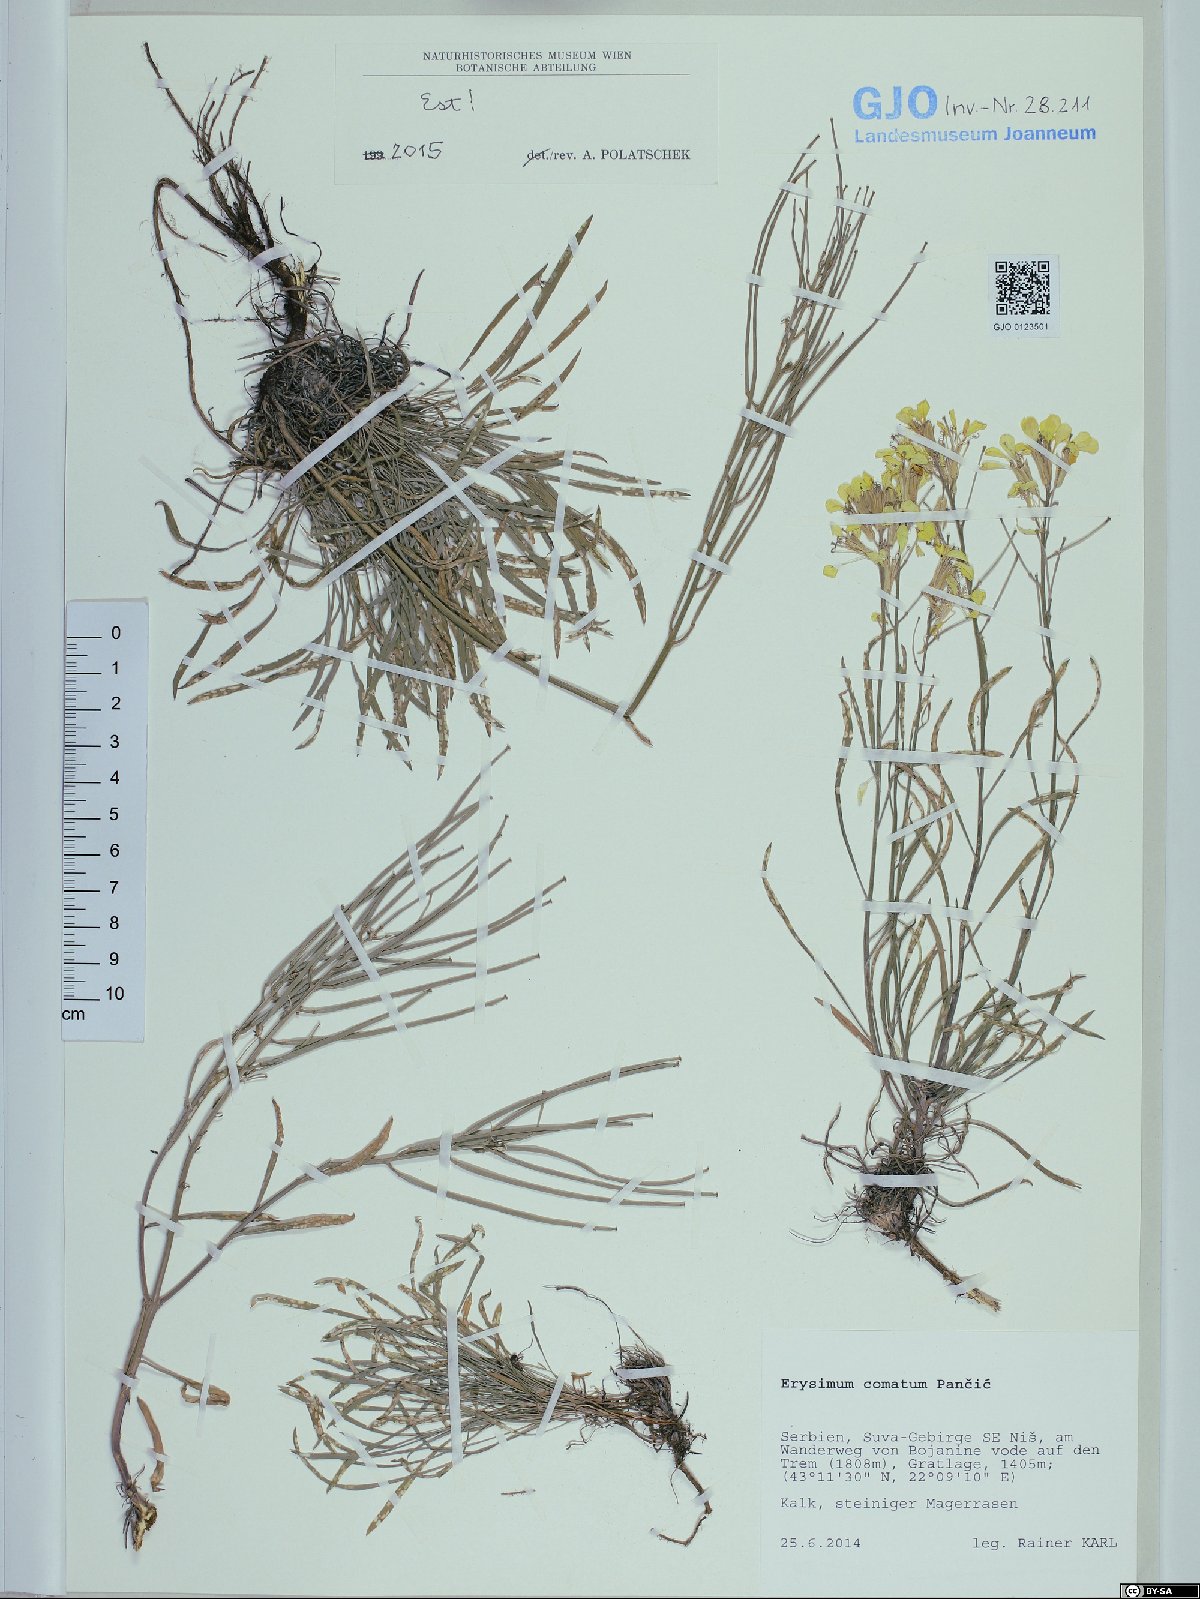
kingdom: Plantae
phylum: Tracheophyta
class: Magnoliopsida
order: Brassicales
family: Brassicaceae
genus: Erysimum
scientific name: Erysimum comatum
